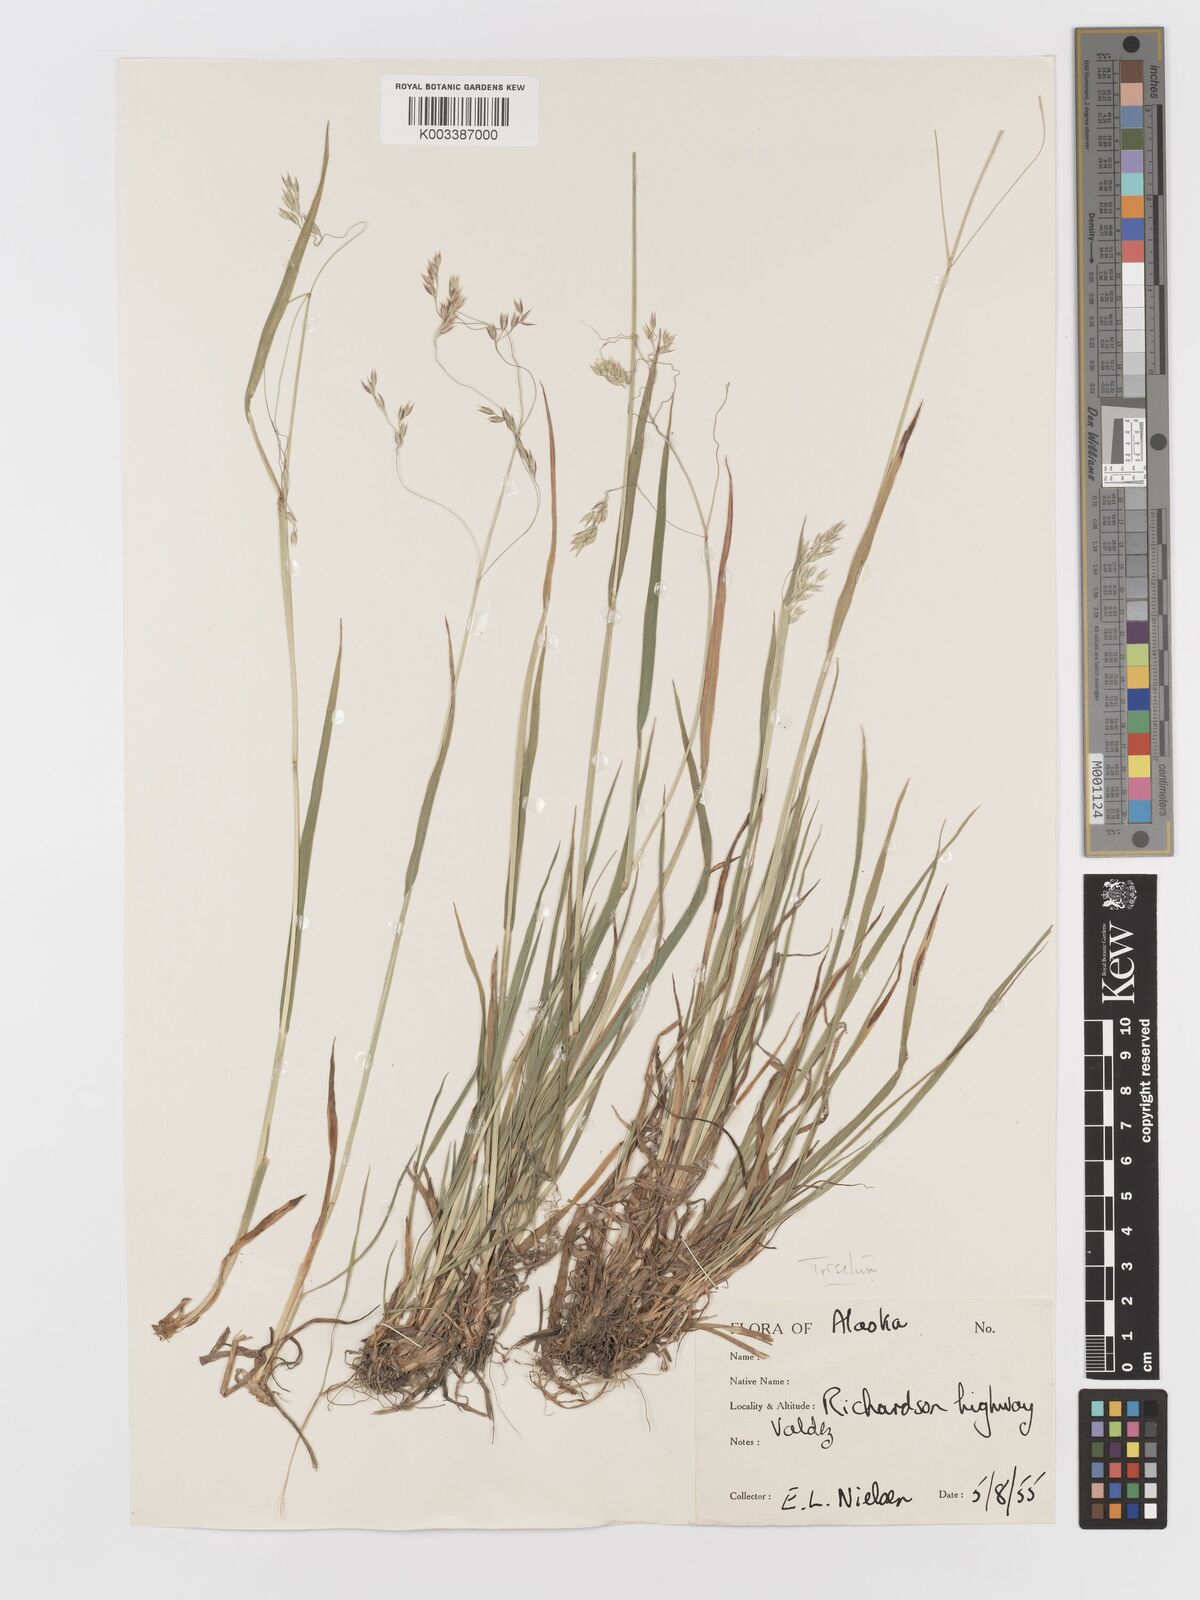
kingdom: Plantae
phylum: Tracheophyta
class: Liliopsida
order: Poales
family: Poaceae
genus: Vahlodea
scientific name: Vahlodea atropurpurea
